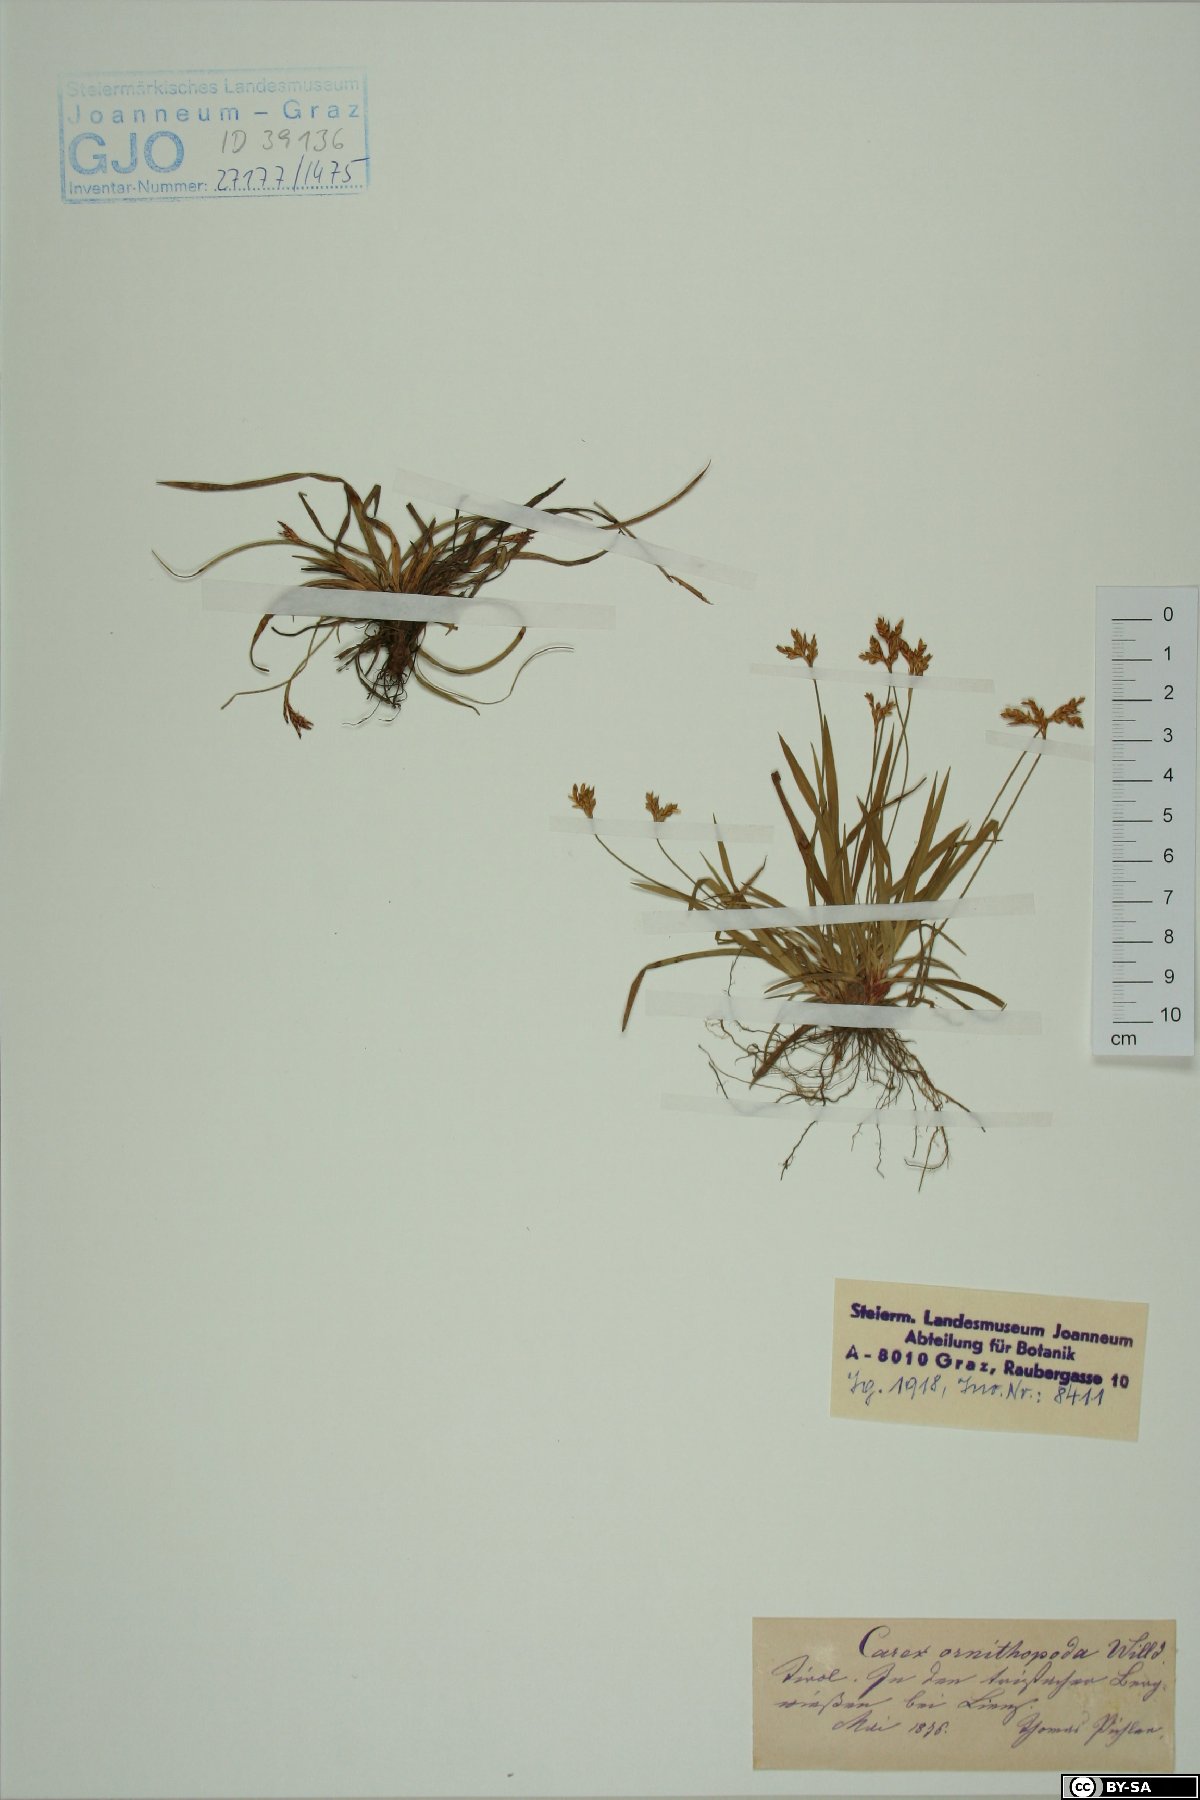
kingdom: Plantae
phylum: Tracheophyta
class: Liliopsida
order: Poales
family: Cyperaceae
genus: Carex
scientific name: Carex ornithopoda
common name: Bird's-foot sedge
